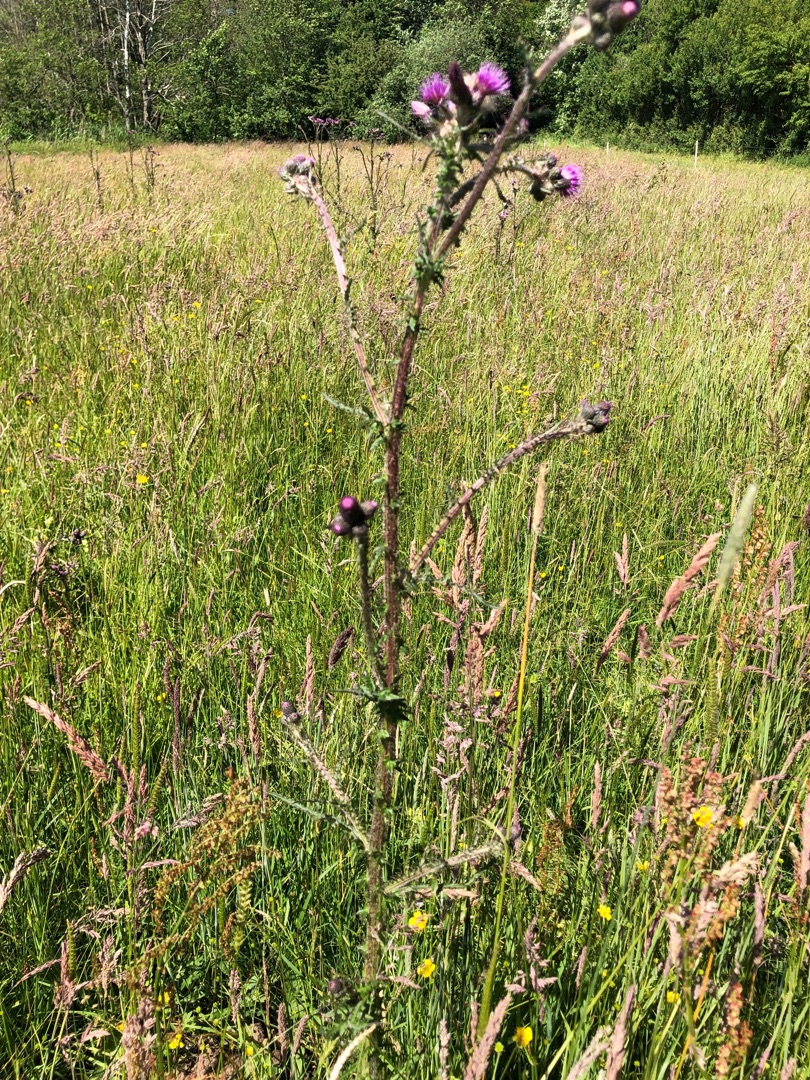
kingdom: Plantae
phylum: Tracheophyta
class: Magnoliopsida
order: Asterales
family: Asteraceae
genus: Cirsium
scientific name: Cirsium palustre
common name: Kær-tidsel
